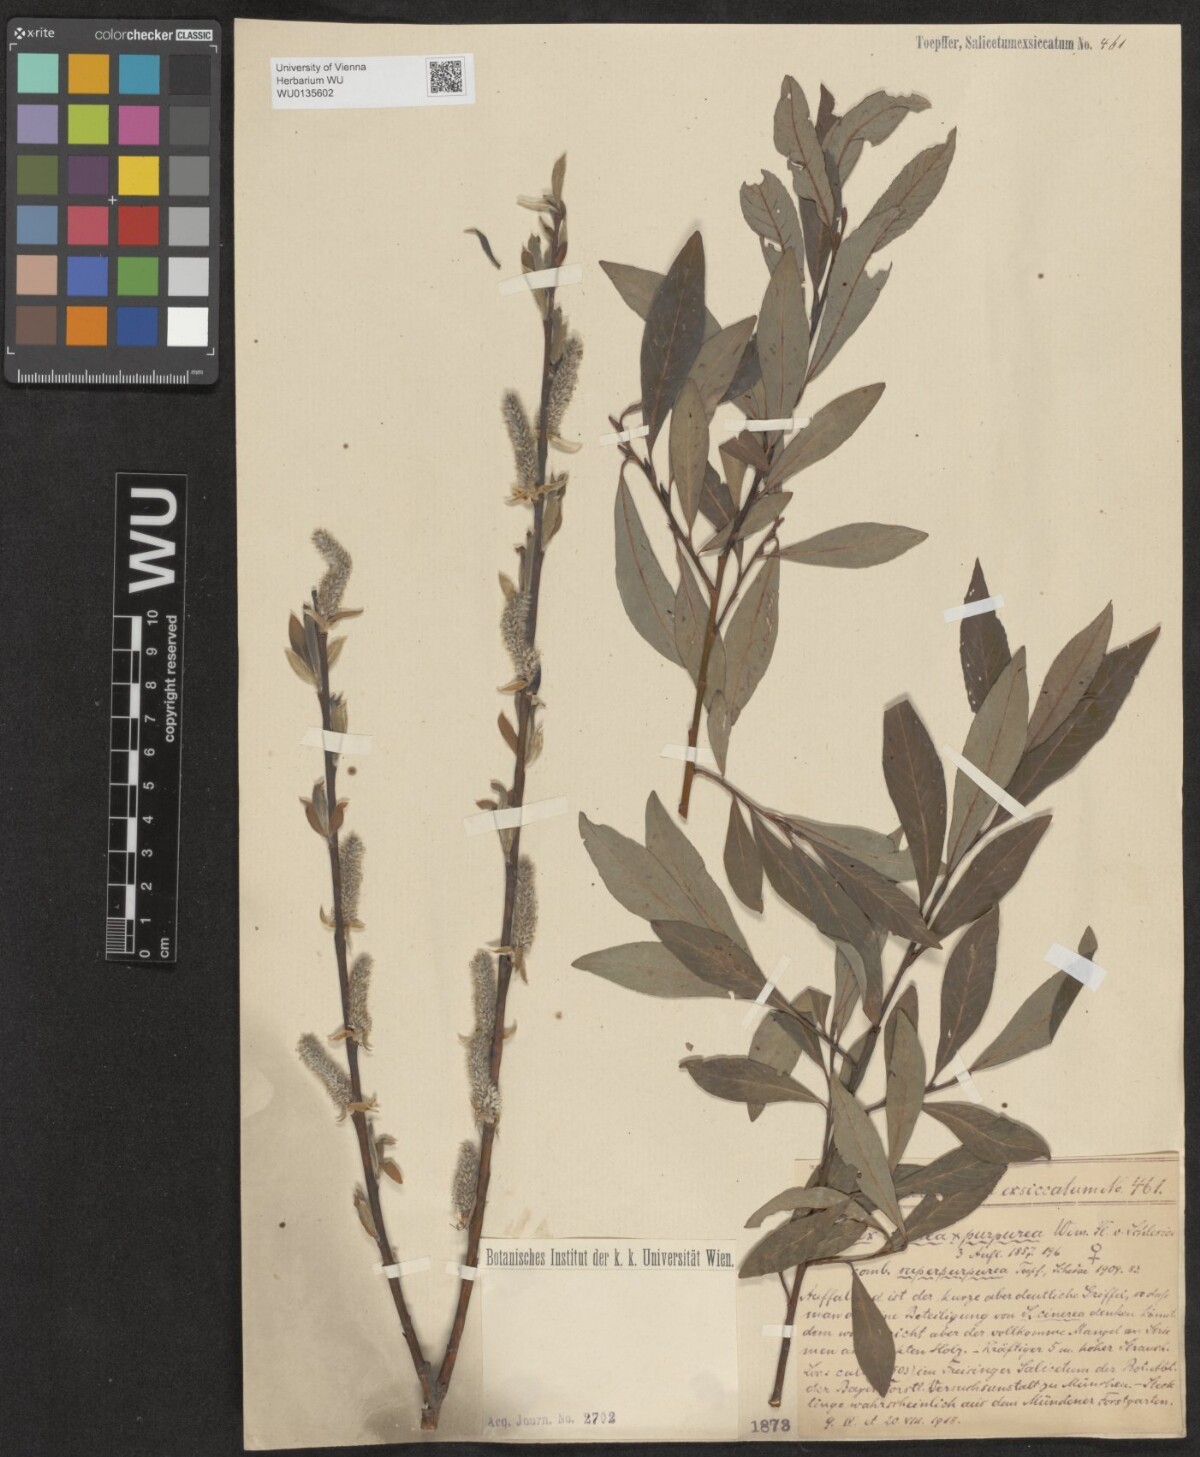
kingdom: Plantae
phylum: Tracheophyta
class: Magnoliopsida
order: Malpighiales
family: Salicaceae
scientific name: Salicaceae
